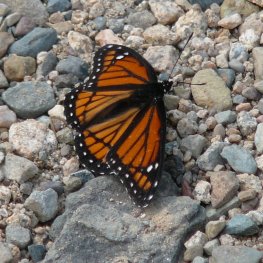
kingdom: Animalia
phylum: Arthropoda
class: Insecta
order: Lepidoptera
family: Nymphalidae
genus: Limenitis
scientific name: Limenitis archippus
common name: Viceroy
